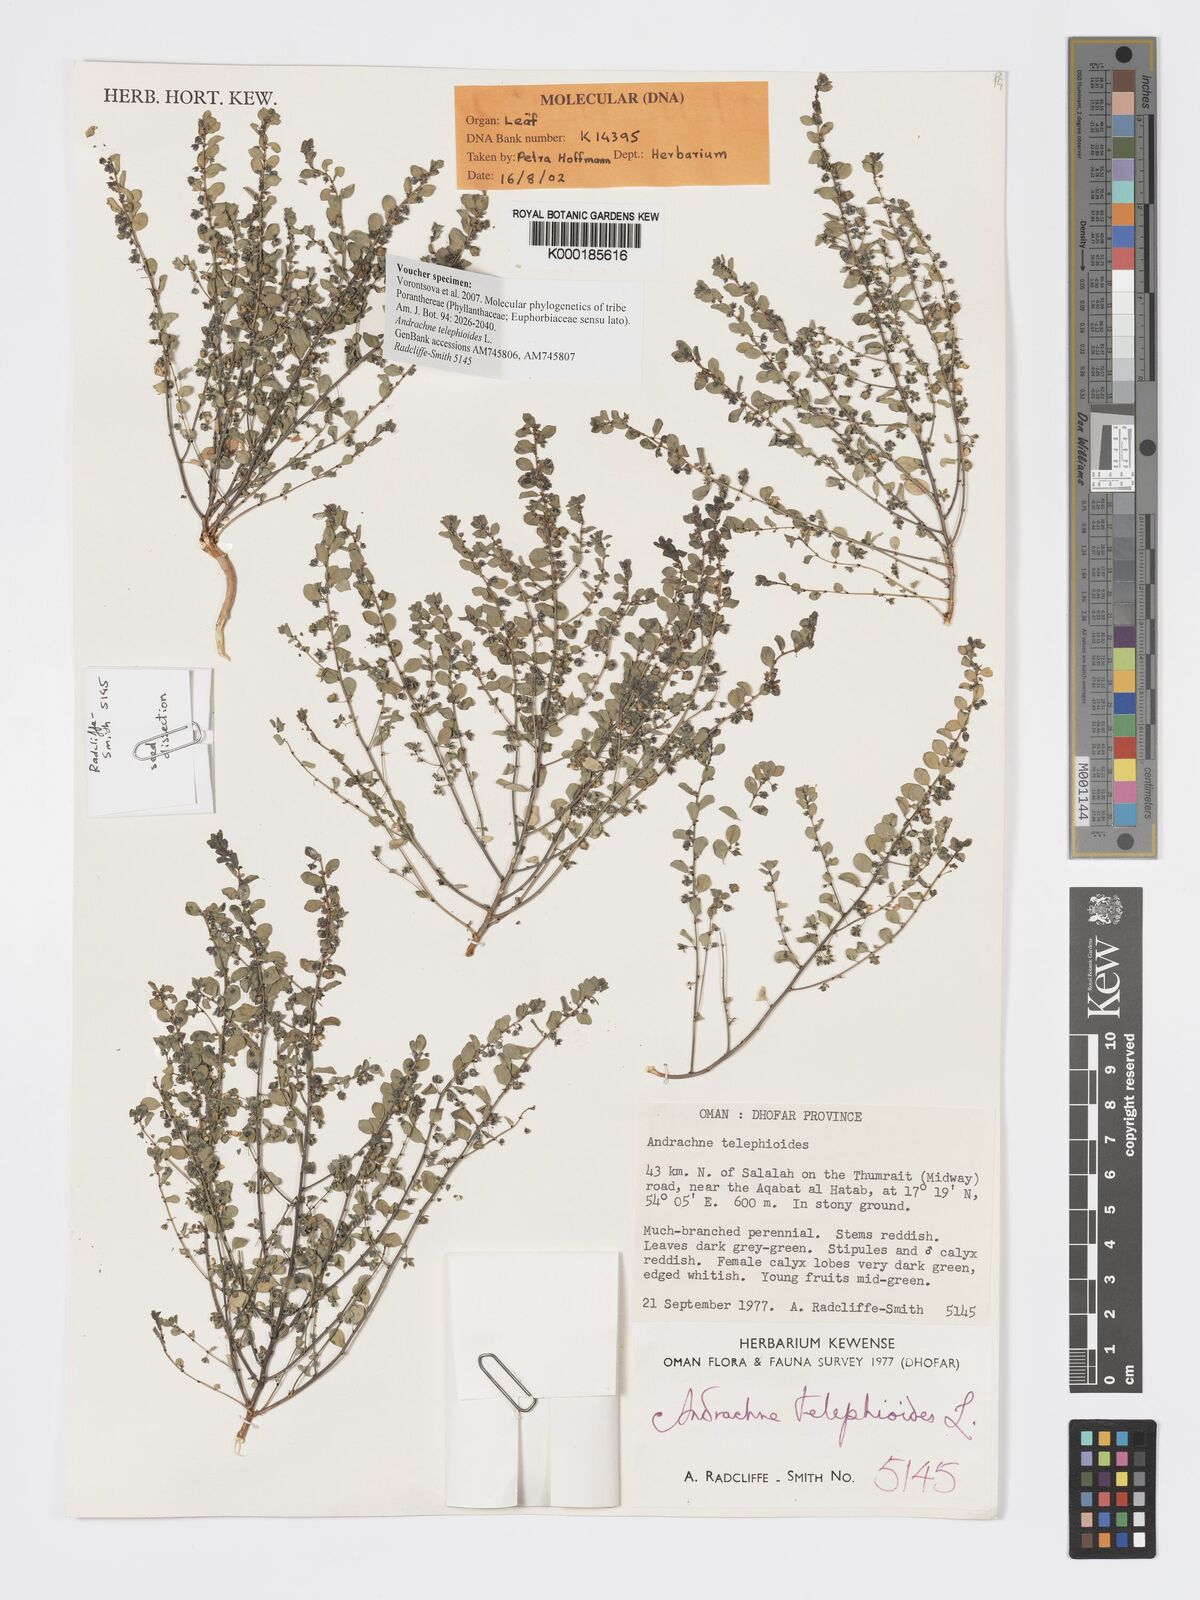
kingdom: Plantae
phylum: Tracheophyta
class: Magnoliopsida
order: Malpighiales
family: Phyllanthaceae
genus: Andrachne
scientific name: Andrachne telephioides
